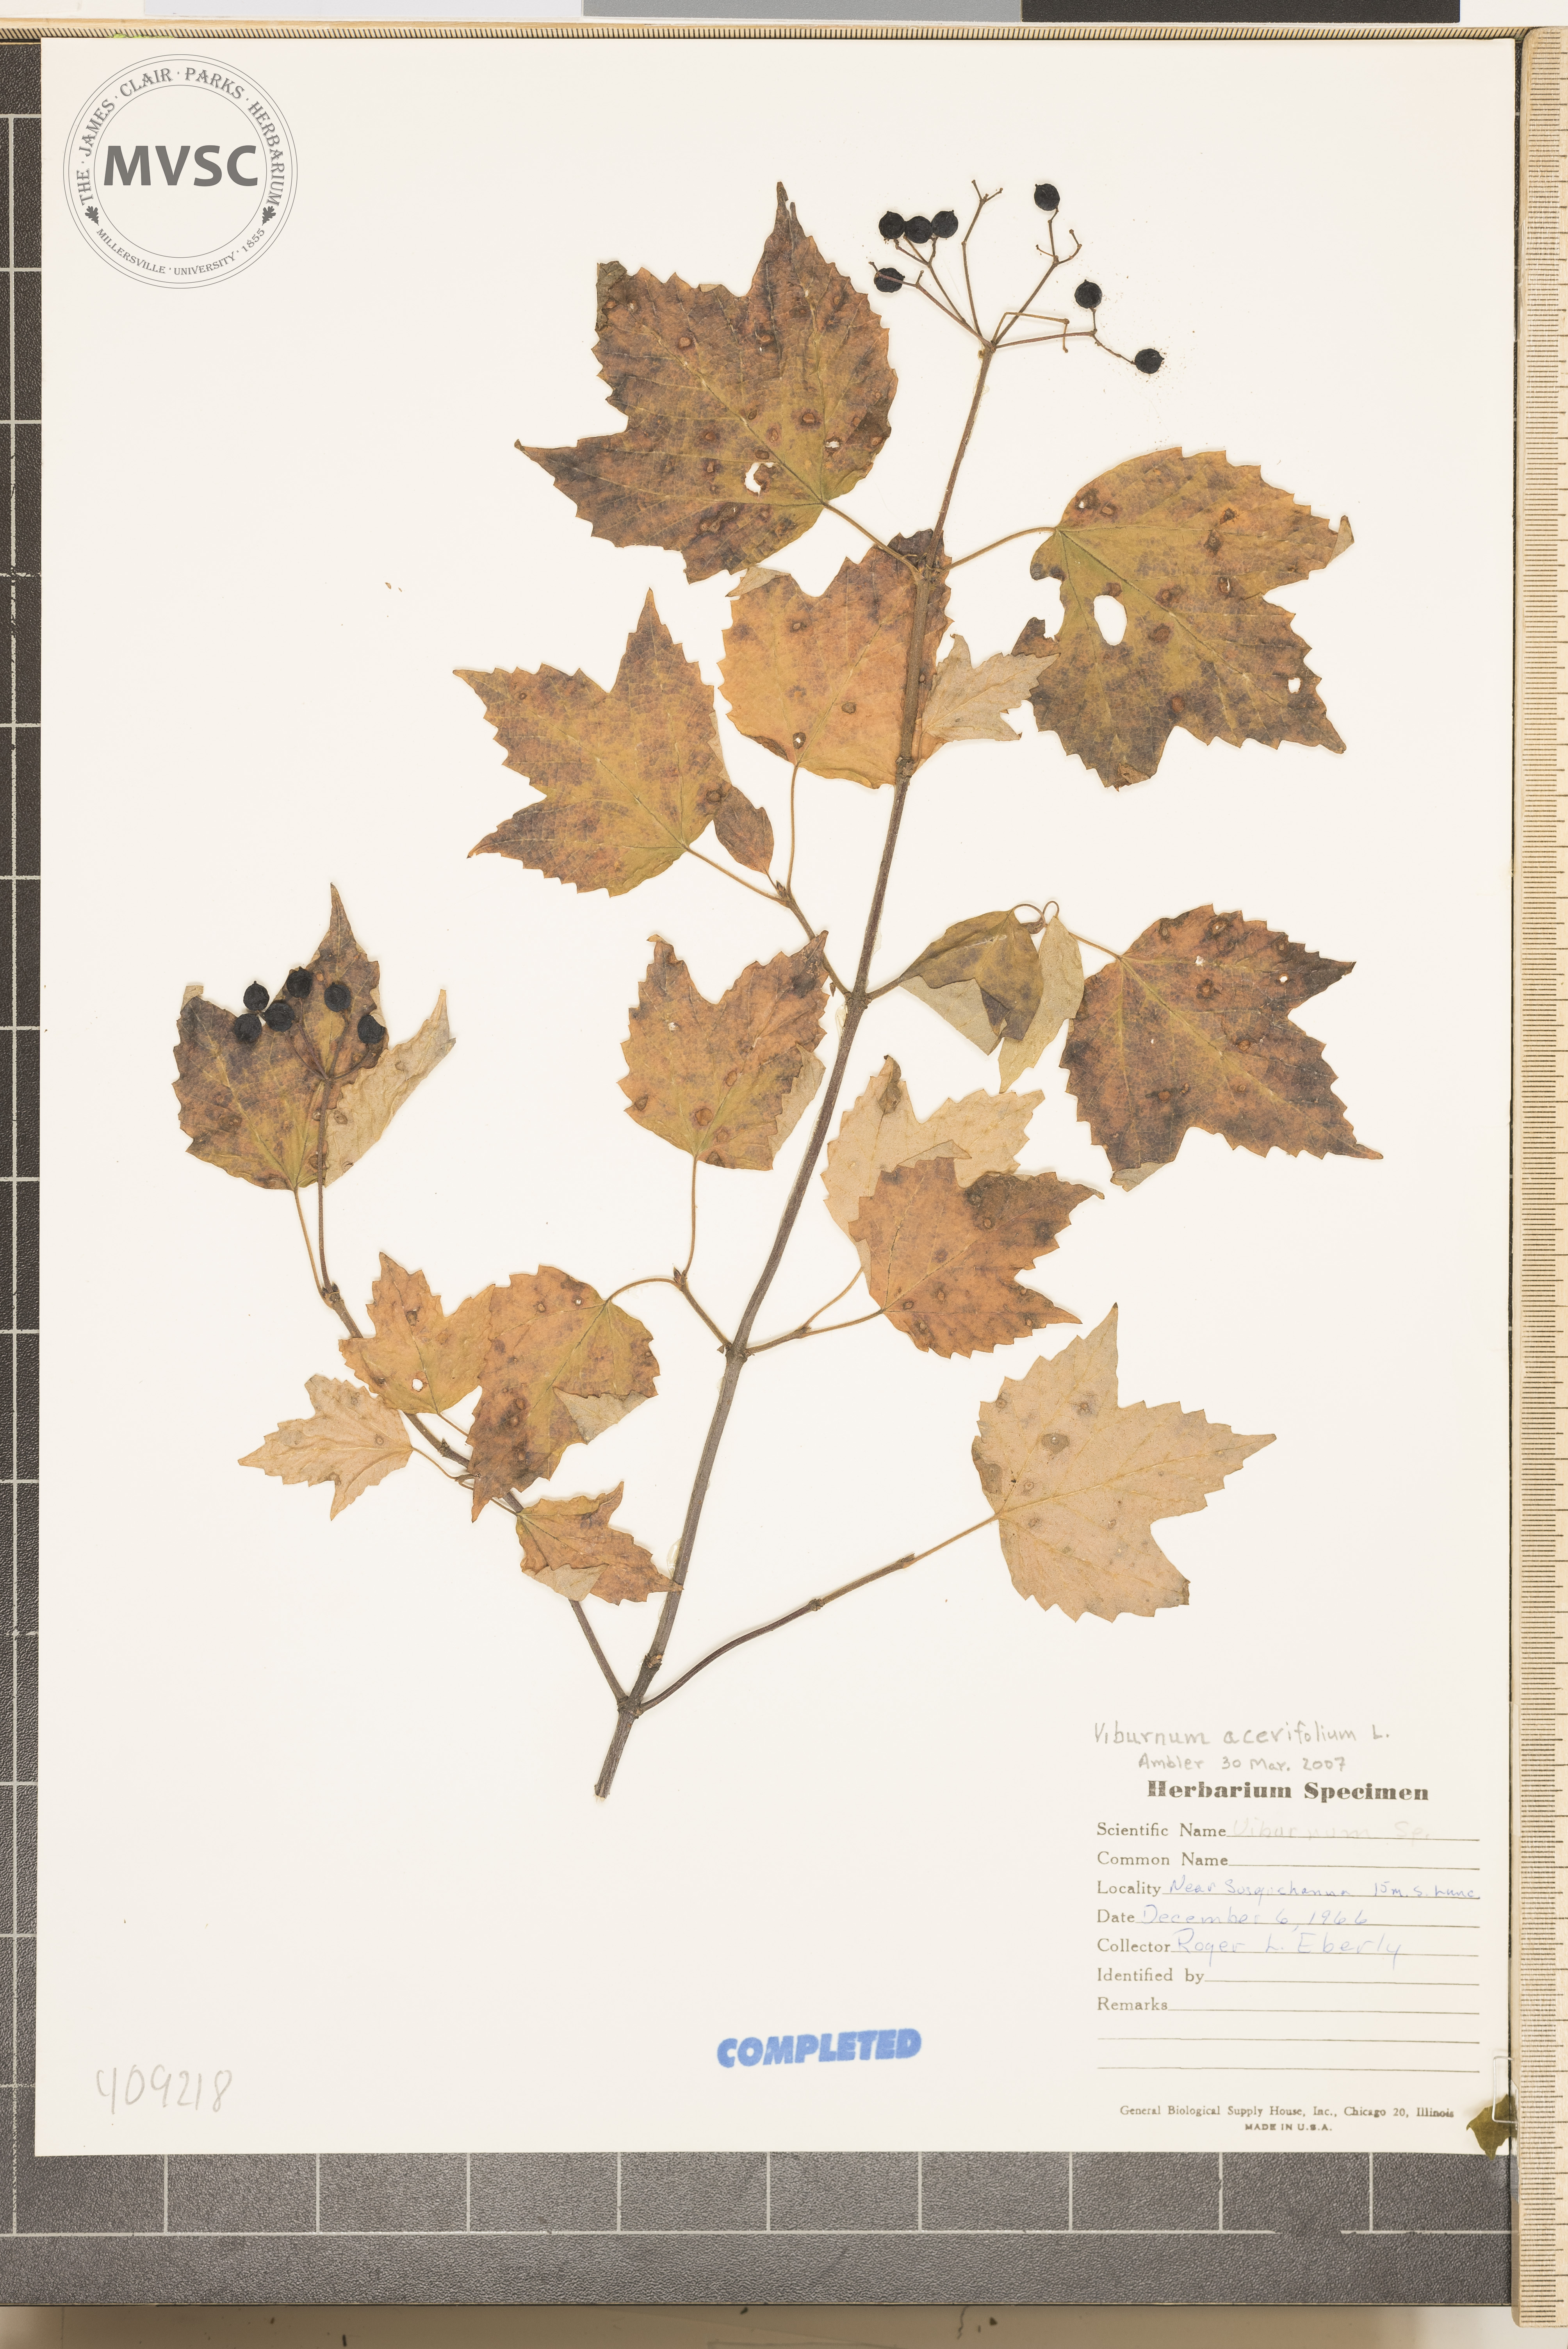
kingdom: Plantae
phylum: Tracheophyta
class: Magnoliopsida
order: Dipsacales
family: Viburnaceae
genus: Viburnum
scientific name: Viburnum acerifolium
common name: mapleleaf viburnum
